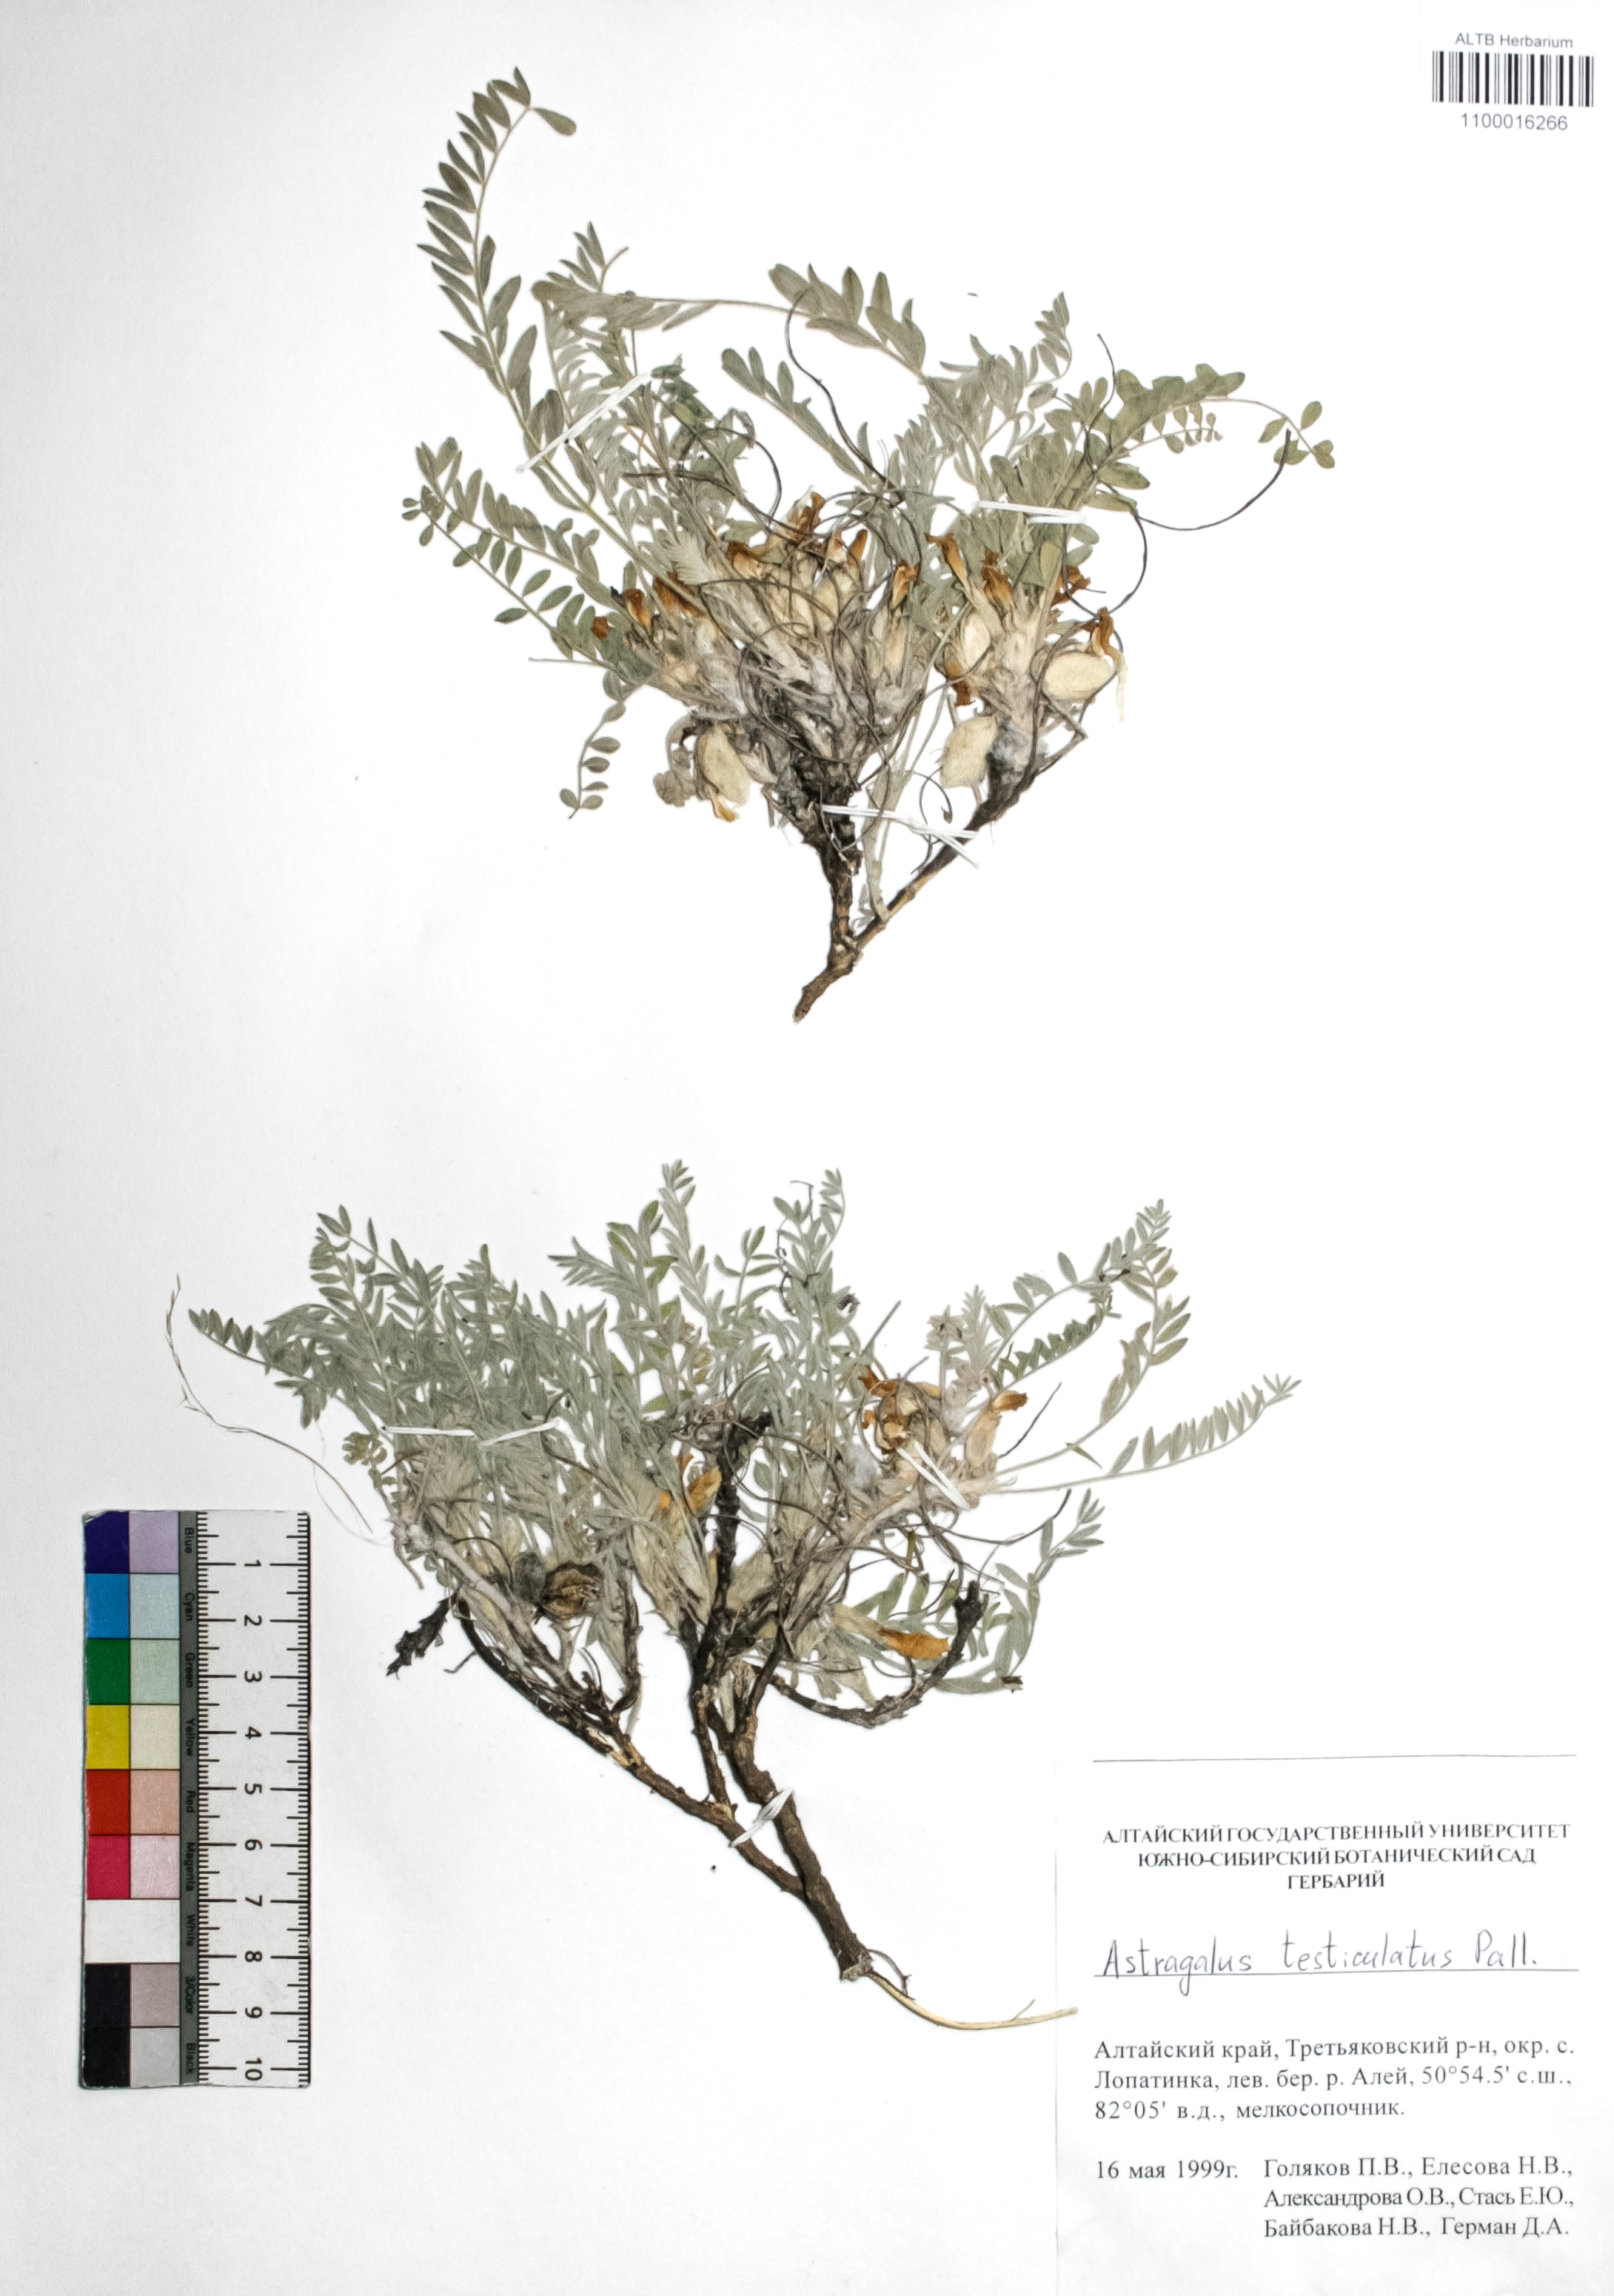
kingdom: Plantae
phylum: Tracheophyta
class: Magnoliopsida
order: Fabales
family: Fabaceae
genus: Astragalus
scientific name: Astragalus testiculatus
